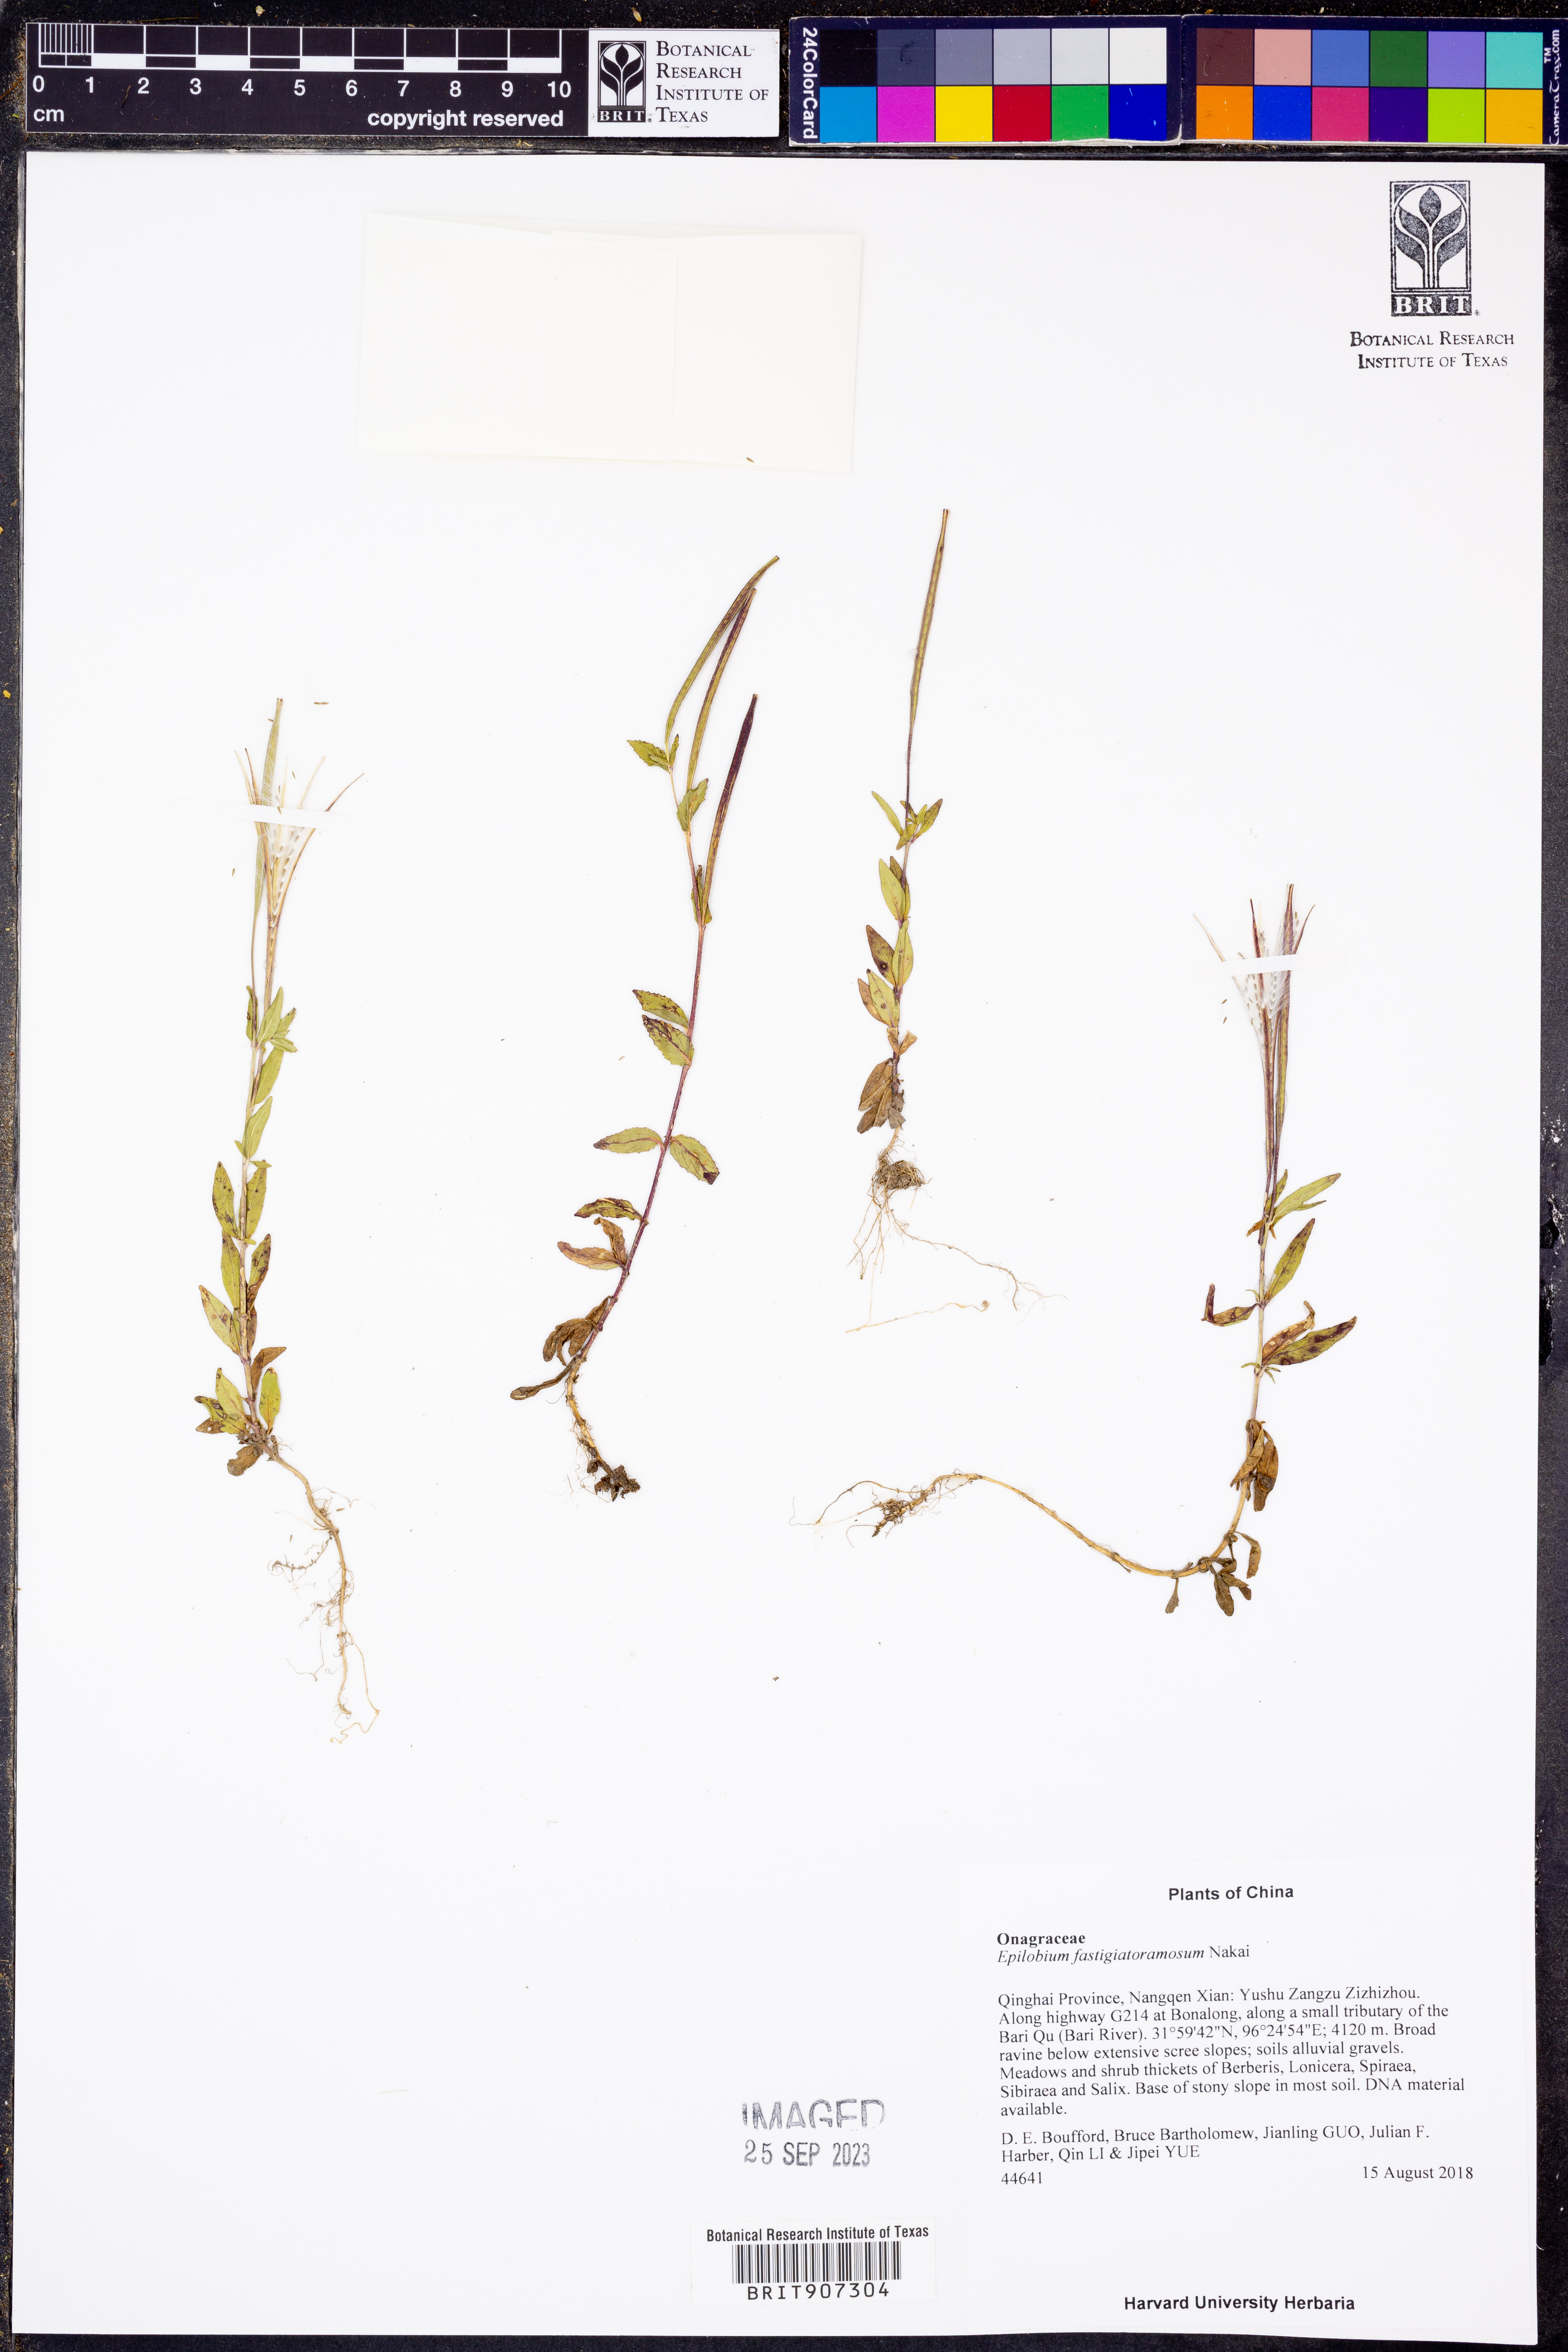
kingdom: Plantae
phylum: Tracheophyta
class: Magnoliopsida
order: Myrtales
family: Onagraceae
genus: Epilobium
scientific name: Epilobium fastigiatoramosum
